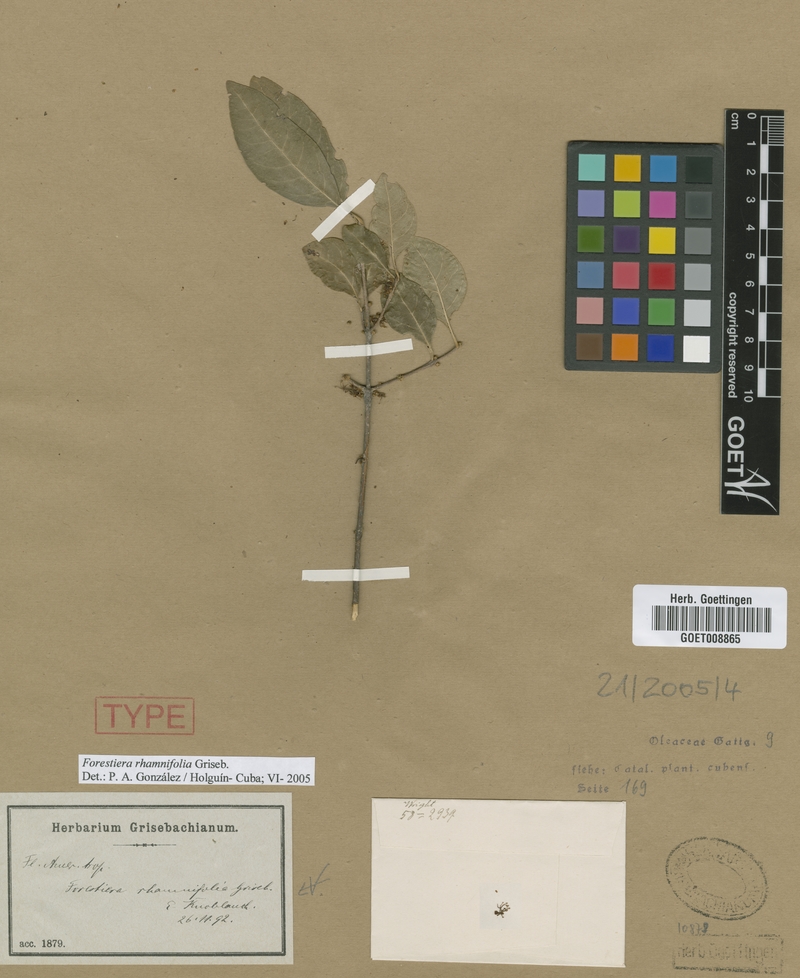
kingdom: Plantae
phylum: Tracheophyta
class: Magnoliopsida
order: Lamiales
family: Oleaceae
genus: Forestiera
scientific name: Forestiera rhamnifolia
